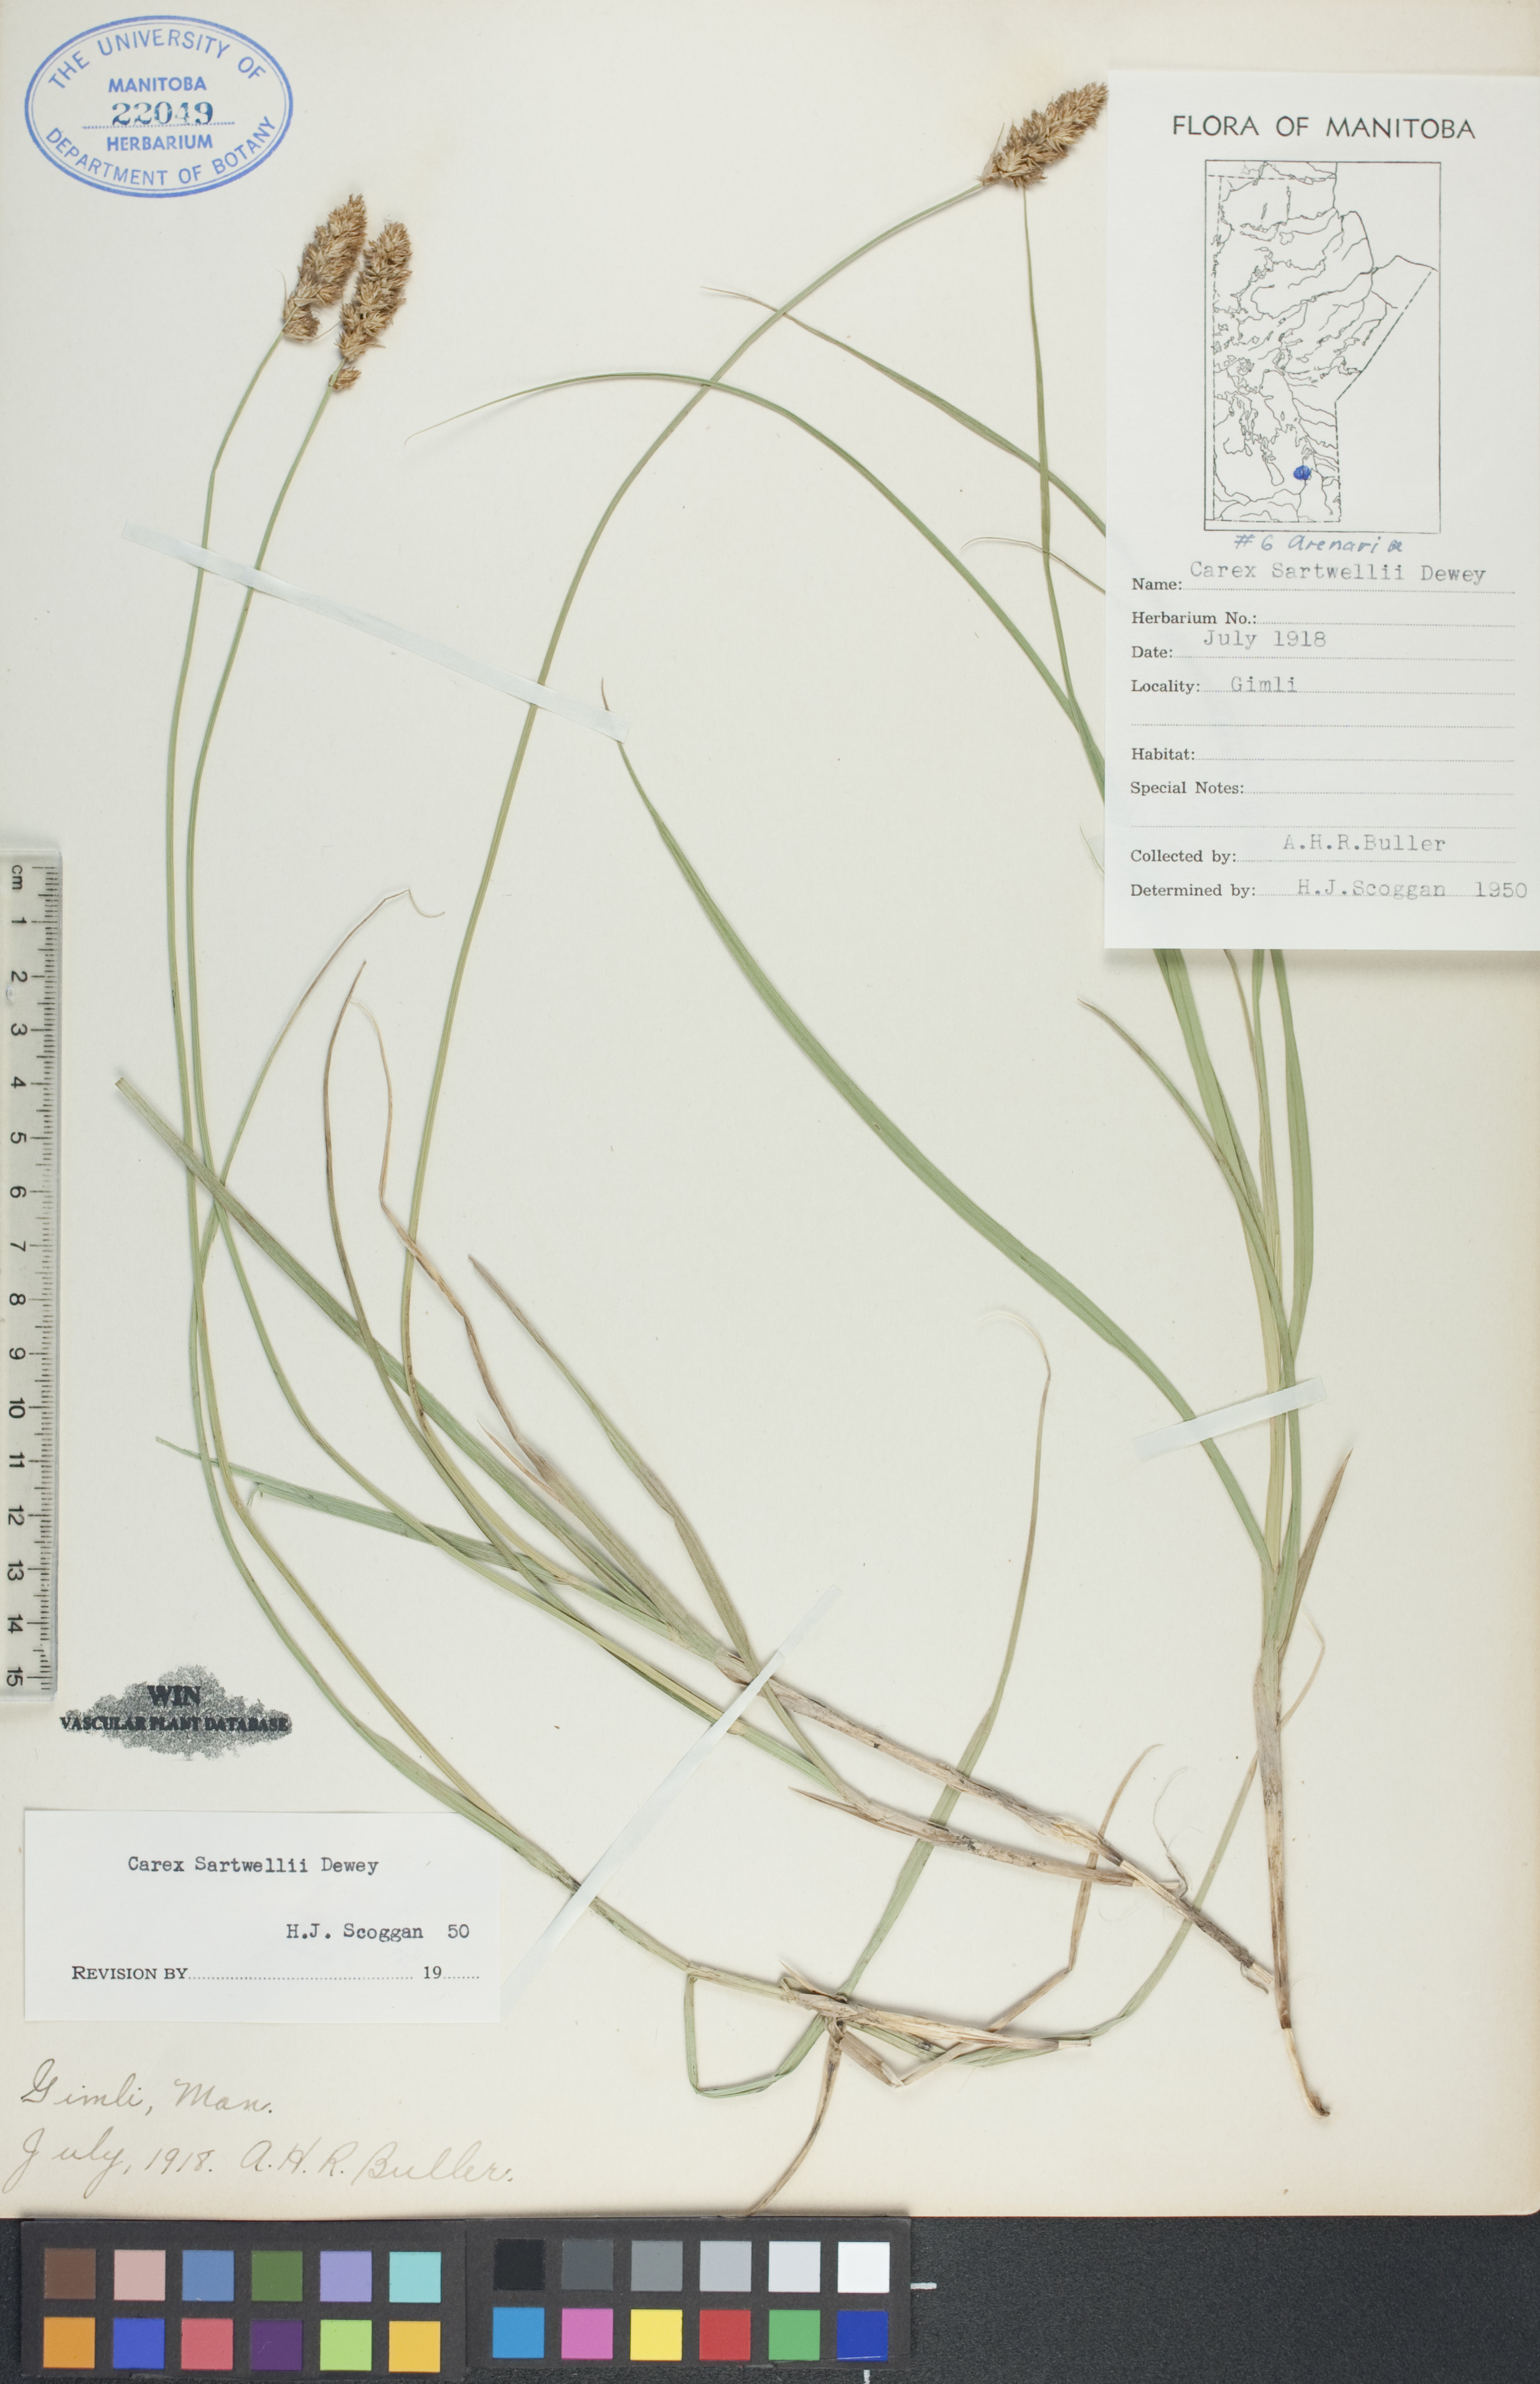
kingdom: Plantae
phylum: Tracheophyta
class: Liliopsida
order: Poales
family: Cyperaceae
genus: Carex
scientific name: Carex sartwellii
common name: Sartwell's sedge
